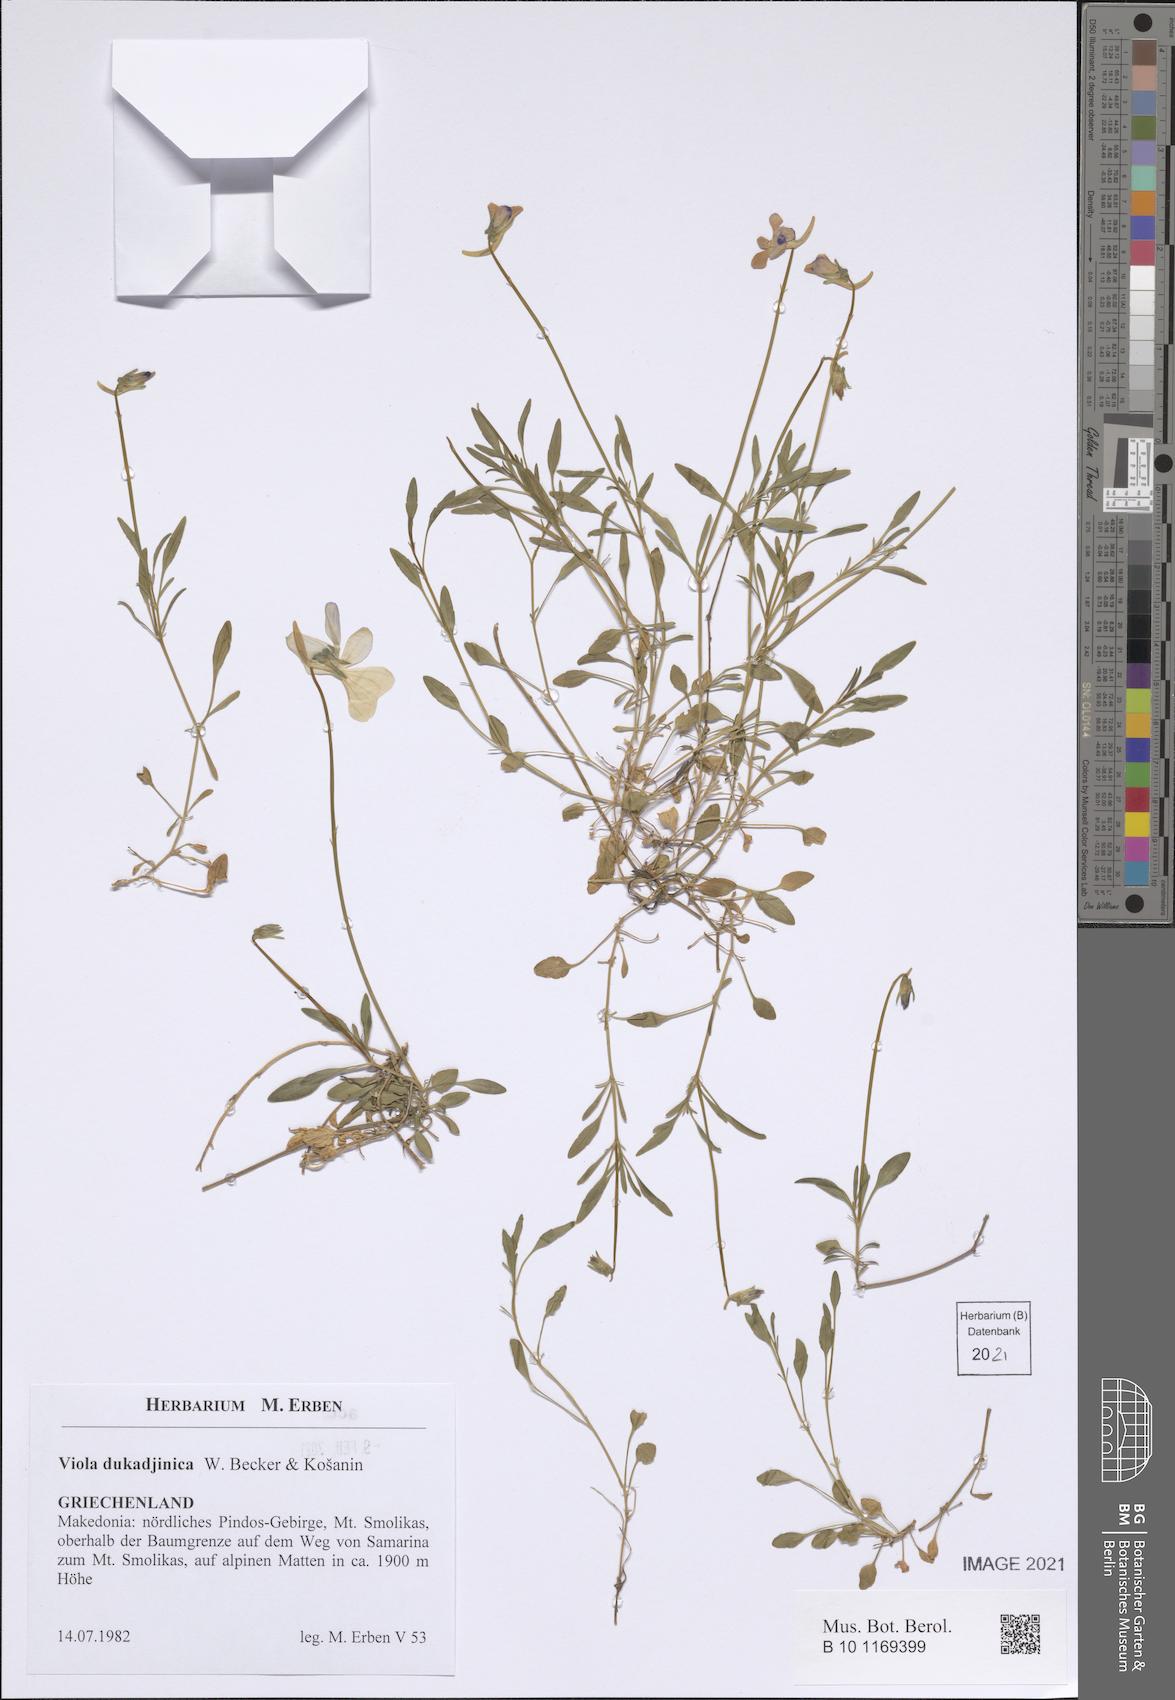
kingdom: Plantae
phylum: Tracheophyta
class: Magnoliopsida
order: Malpighiales
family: Violaceae
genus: Viola
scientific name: Viola dukadjinica
